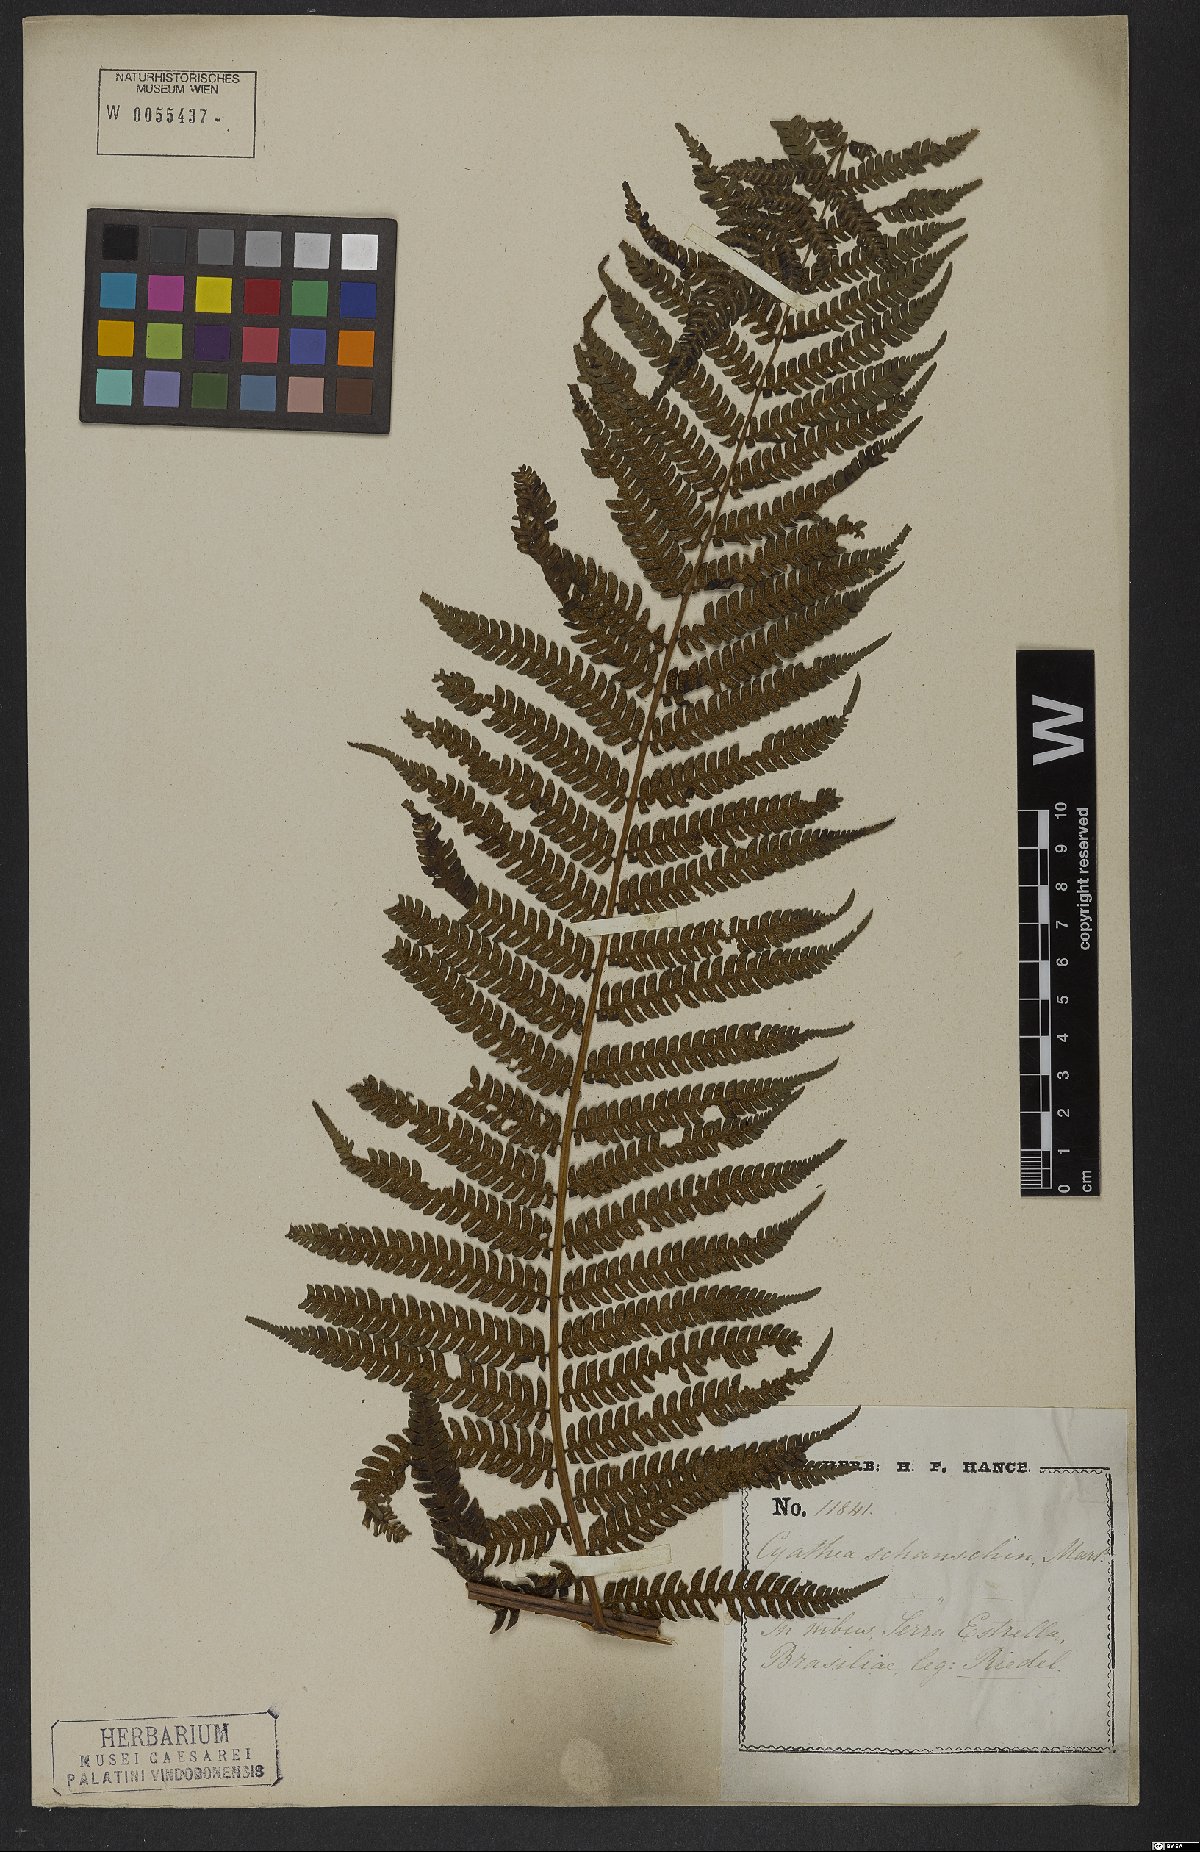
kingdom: Plantae
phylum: Tracheophyta
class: Polypodiopsida
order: Cyatheales
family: Cyatheaceae
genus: Cyathea
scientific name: Cyathea delgadii
